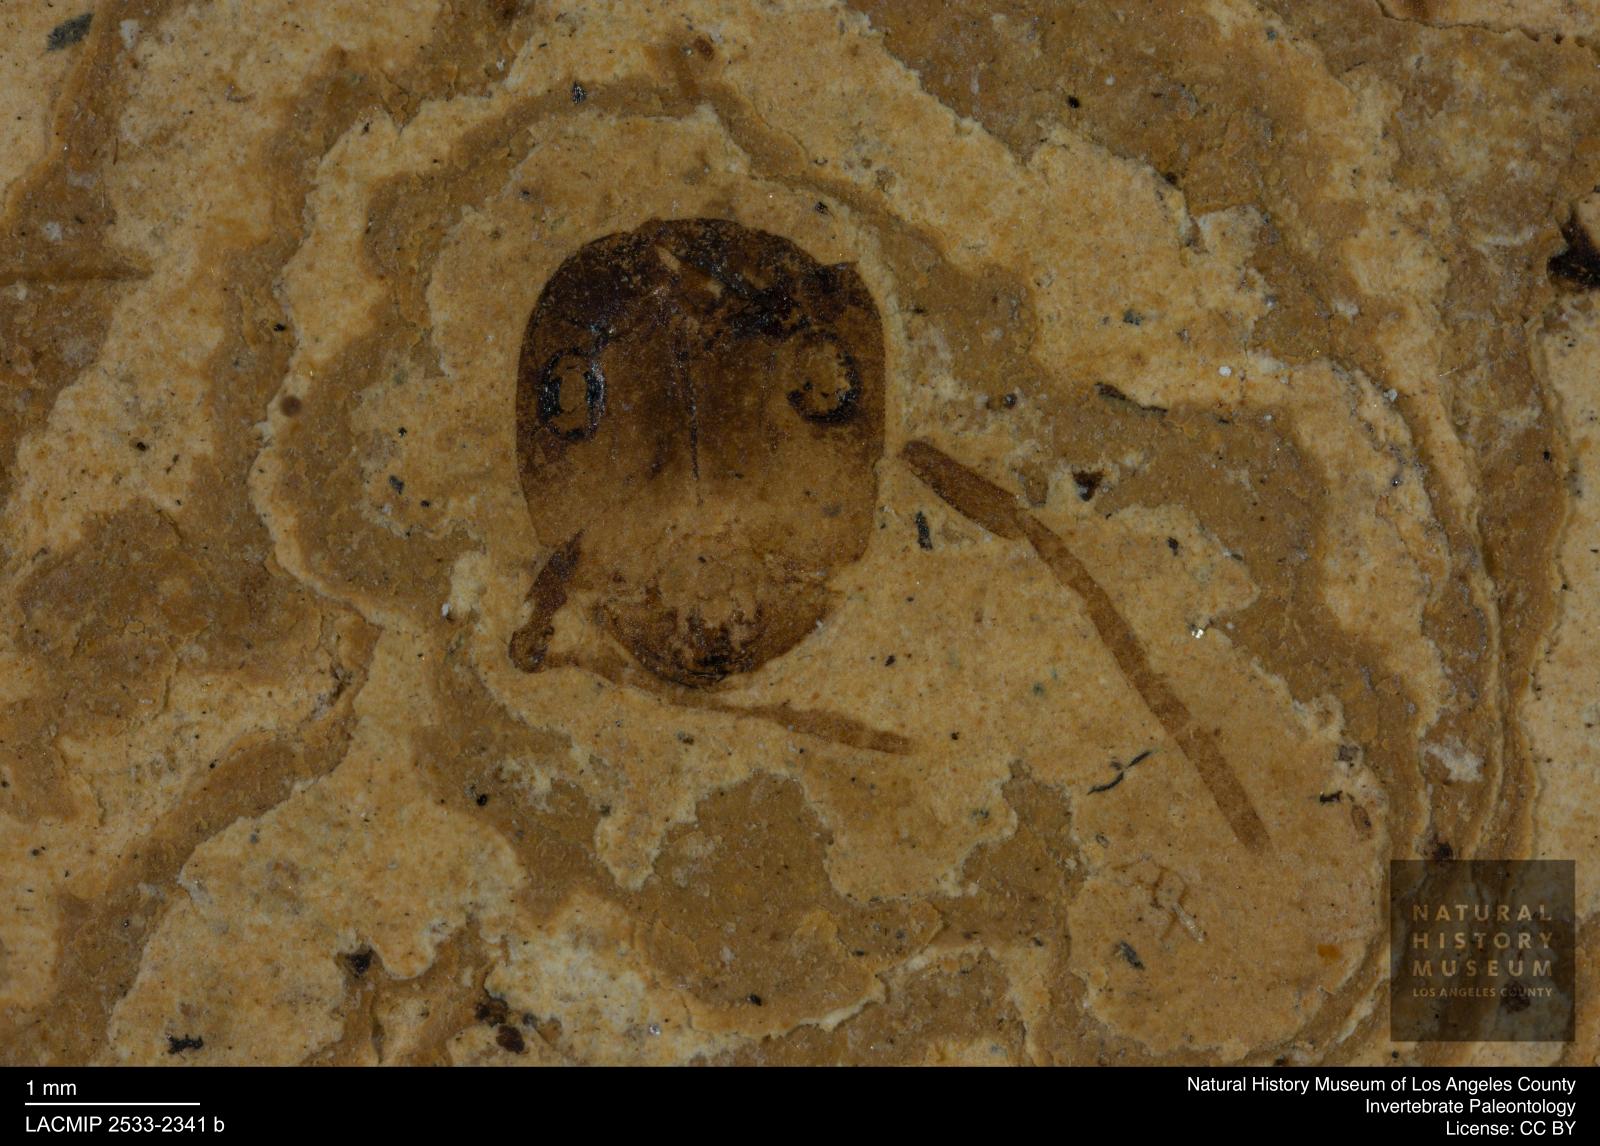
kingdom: Animalia
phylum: Arthropoda
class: Insecta
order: Hymenoptera
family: Formicidae
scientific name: Formicidae
